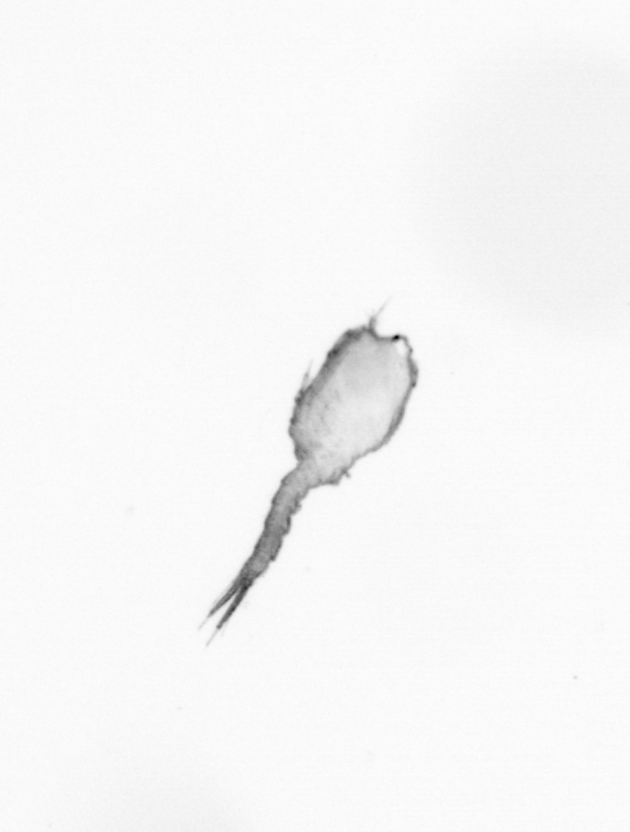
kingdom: Animalia
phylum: Arthropoda
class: Copepoda
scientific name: Copepoda
